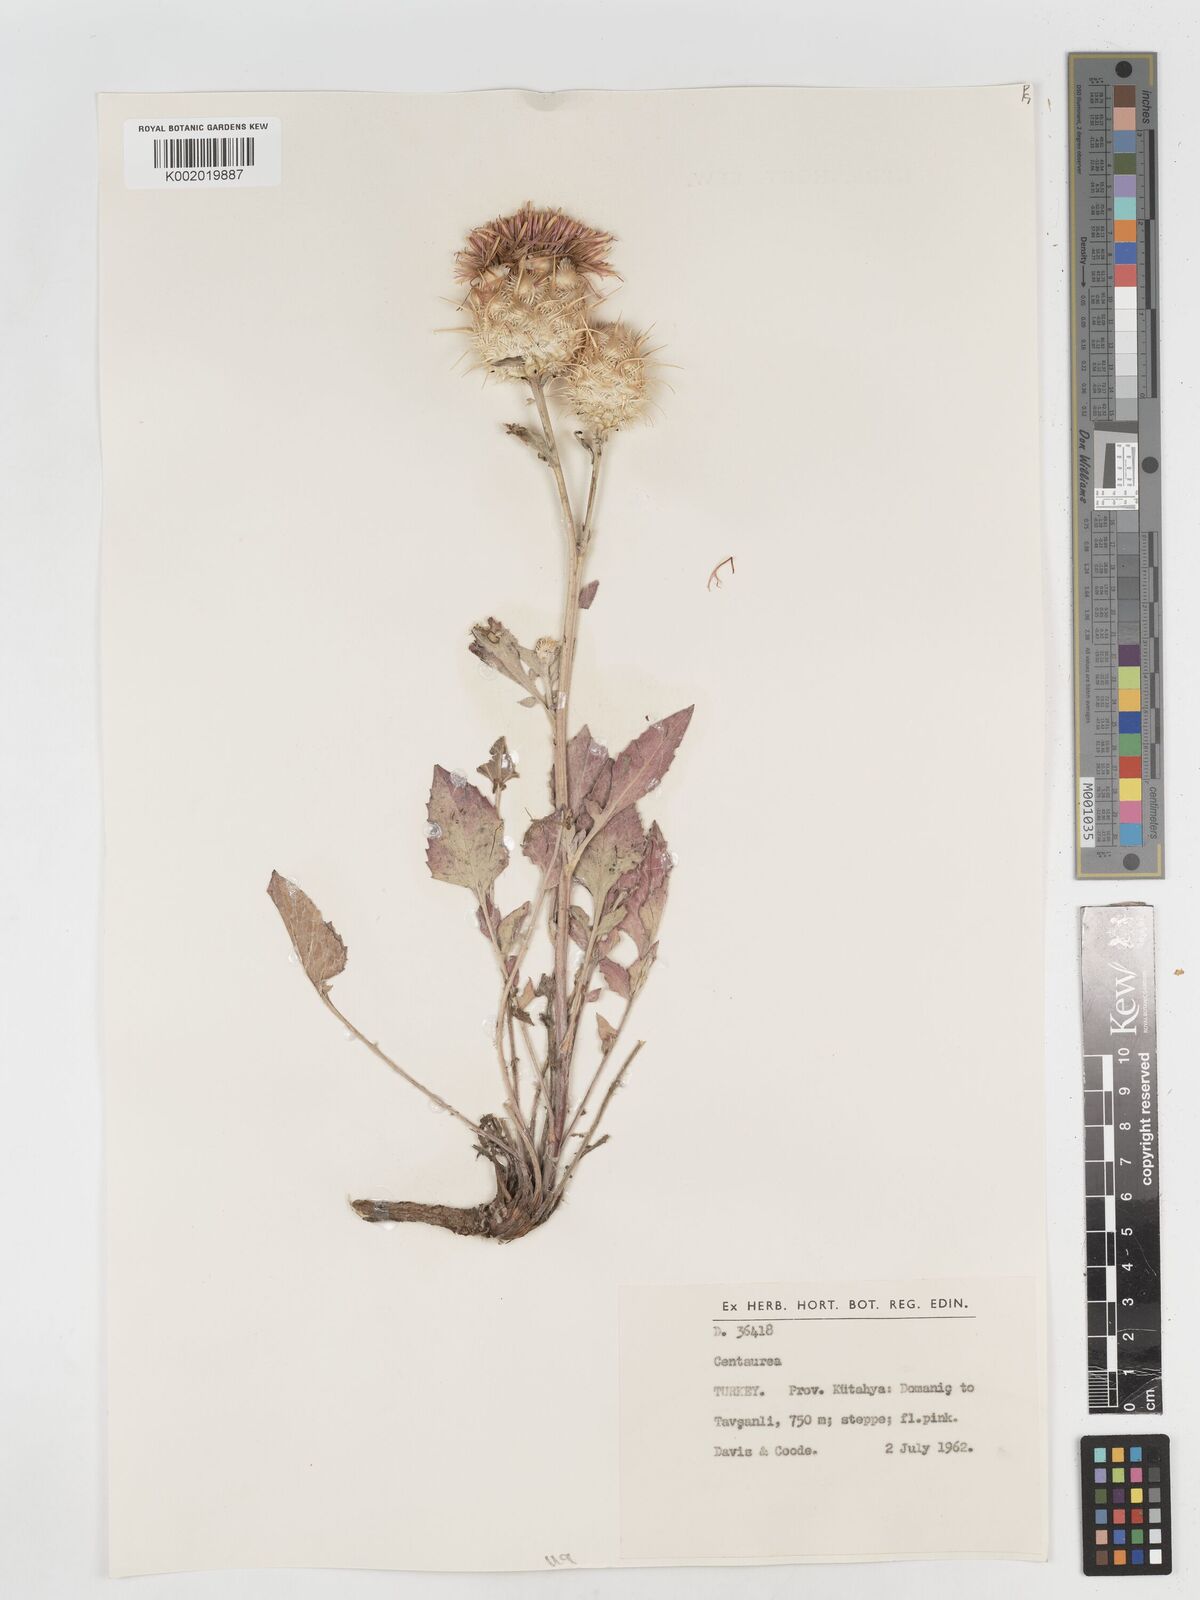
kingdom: Plantae
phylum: Tracheophyta
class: Magnoliopsida
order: Asterales
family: Asteraceae
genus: Centaurea
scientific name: Centaurea lydia
